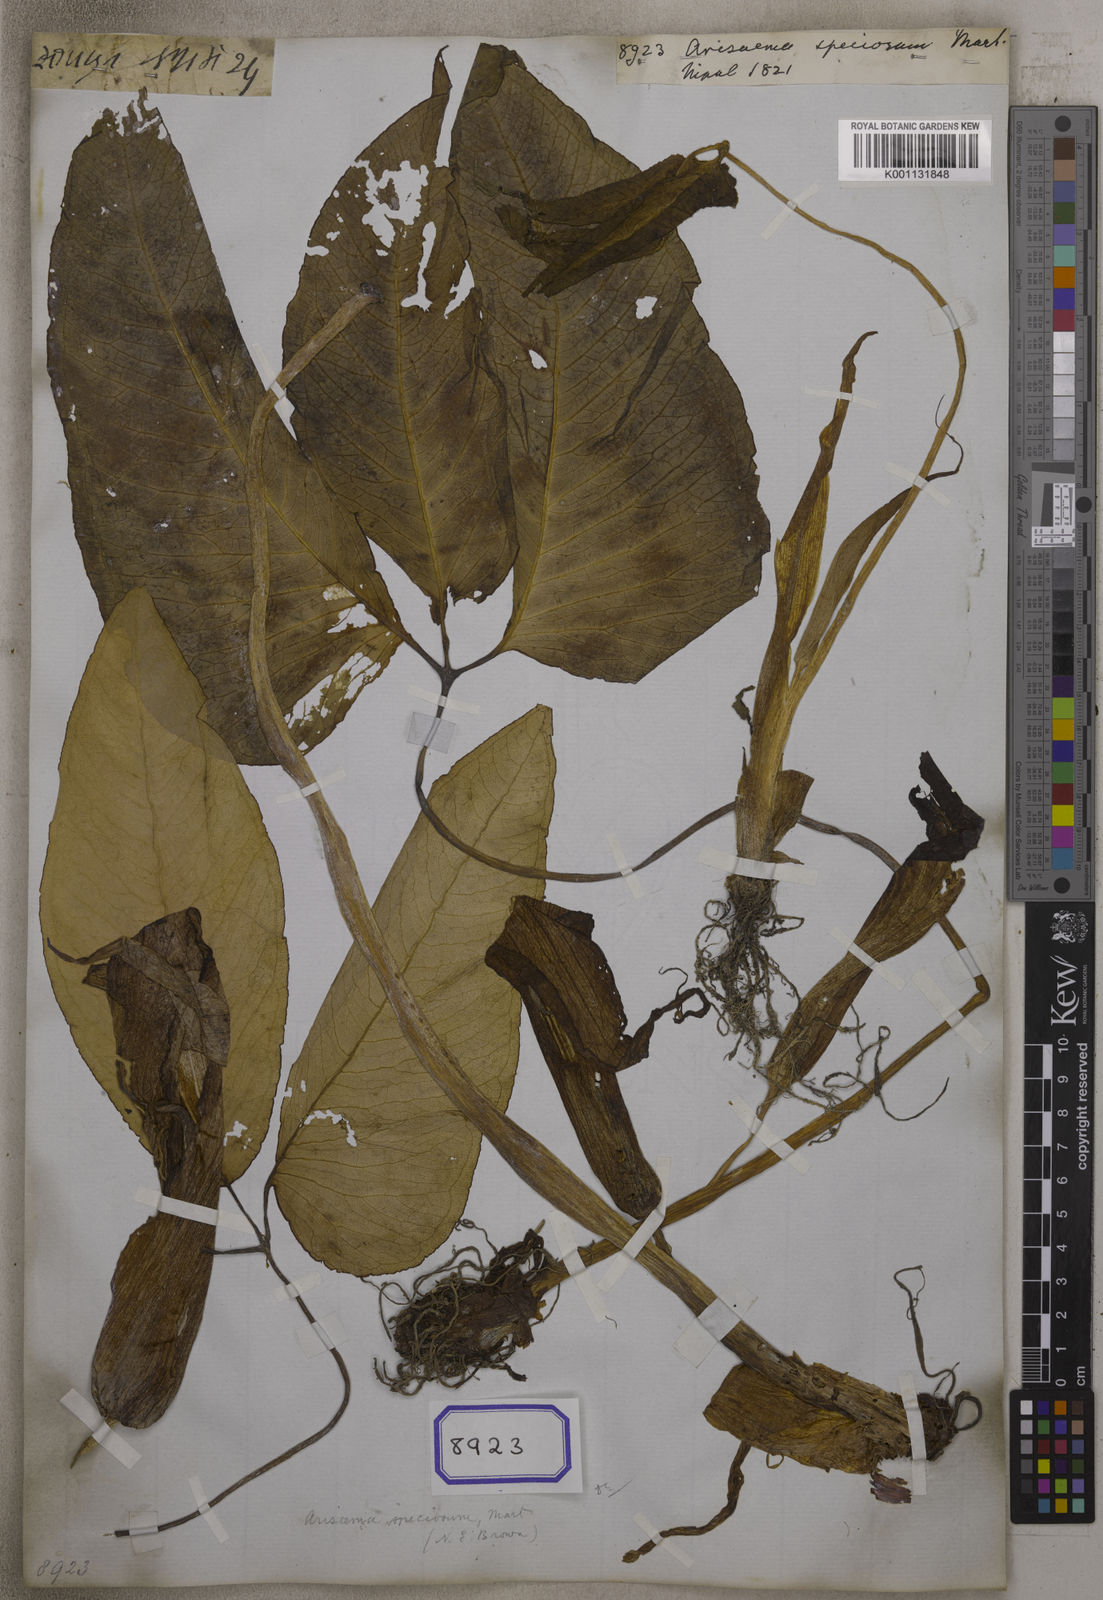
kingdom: Plantae
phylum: Tracheophyta
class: Liliopsida
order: Alismatales
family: Araceae
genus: Arisaema
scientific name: Arisaema speciosum
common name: Showy cobra-lily
